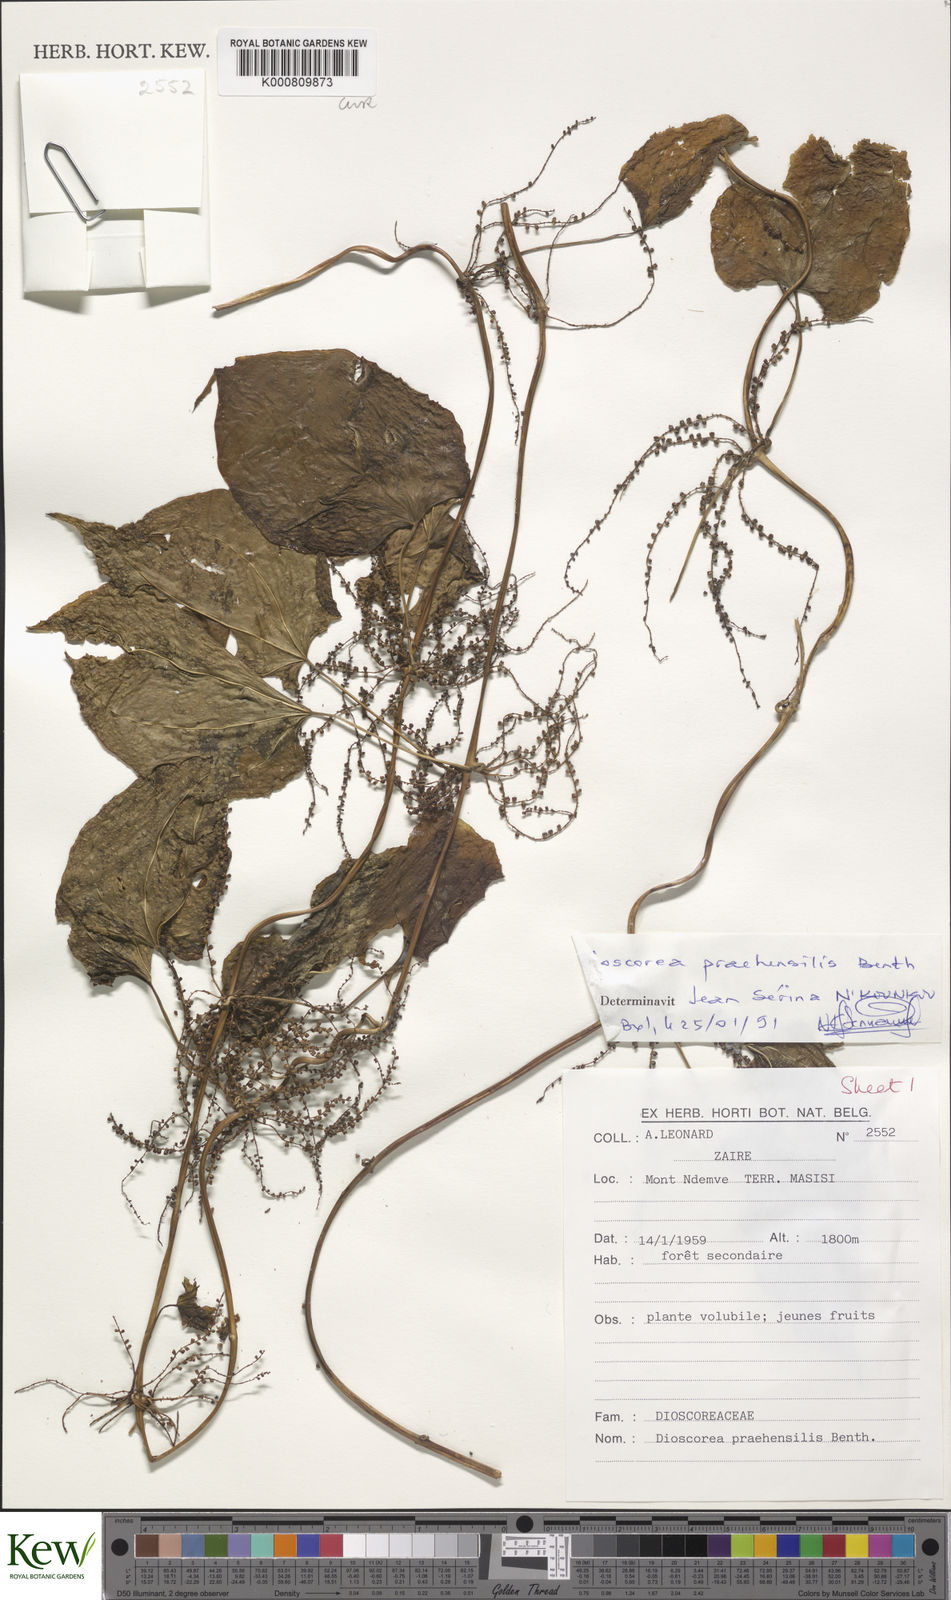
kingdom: Plantae
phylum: Tracheophyta
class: Liliopsida
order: Dioscoreales
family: Dioscoreaceae
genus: Dioscorea
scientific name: Dioscorea praehensilis
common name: Bush yam
